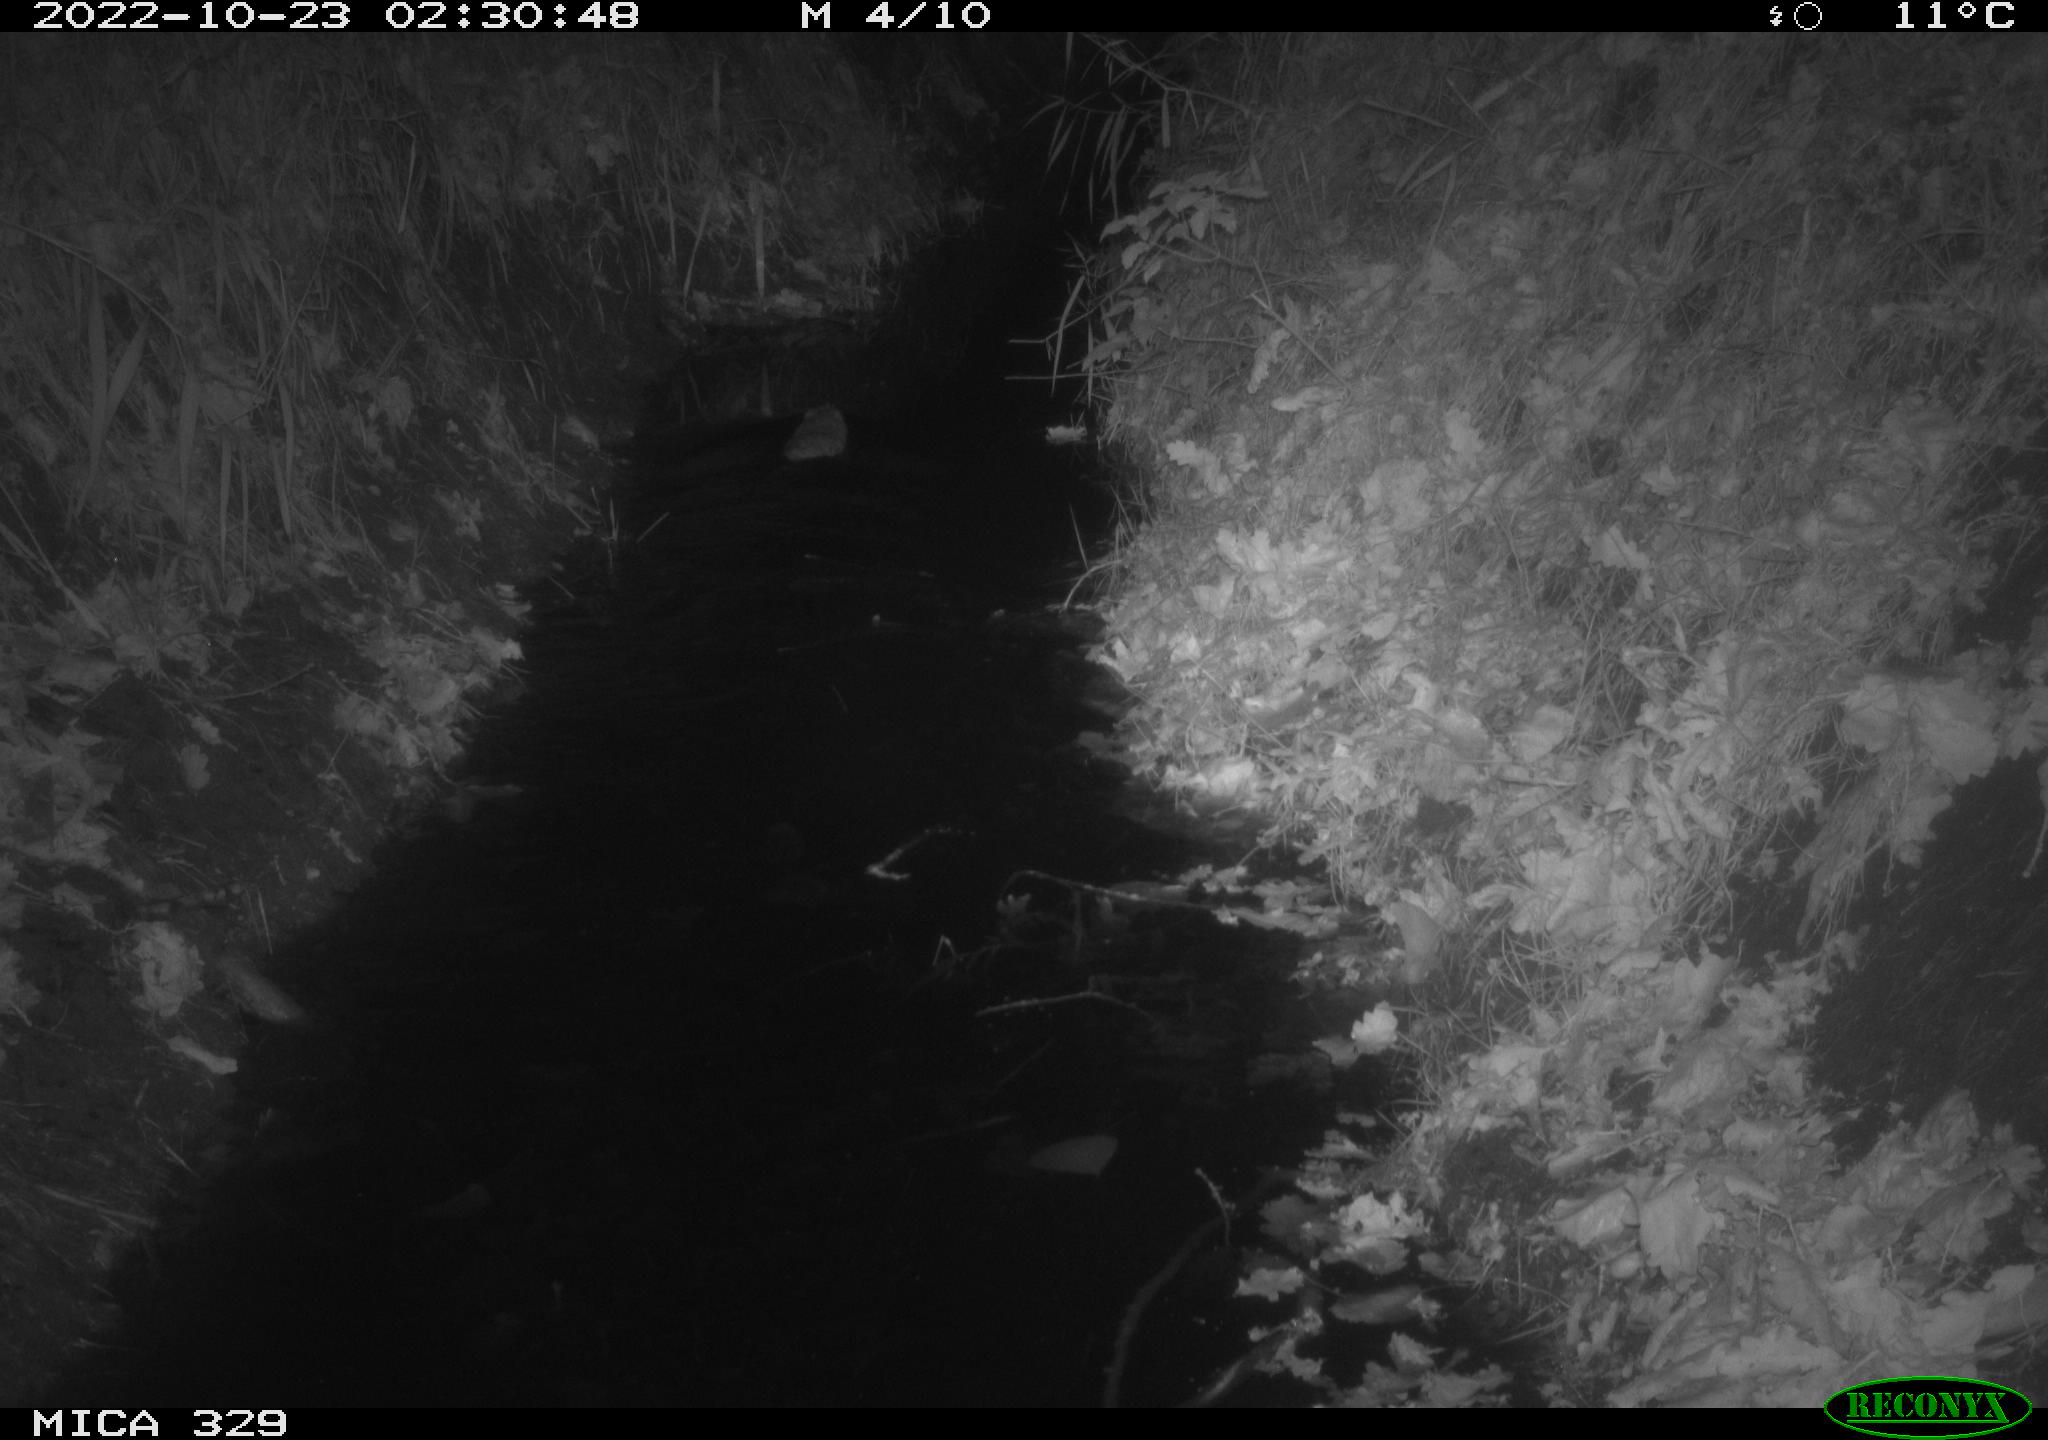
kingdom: Animalia
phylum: Chordata
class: Mammalia
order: Rodentia
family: Cricetidae
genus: Ondatra
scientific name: Ondatra zibethicus
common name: Muskrat
